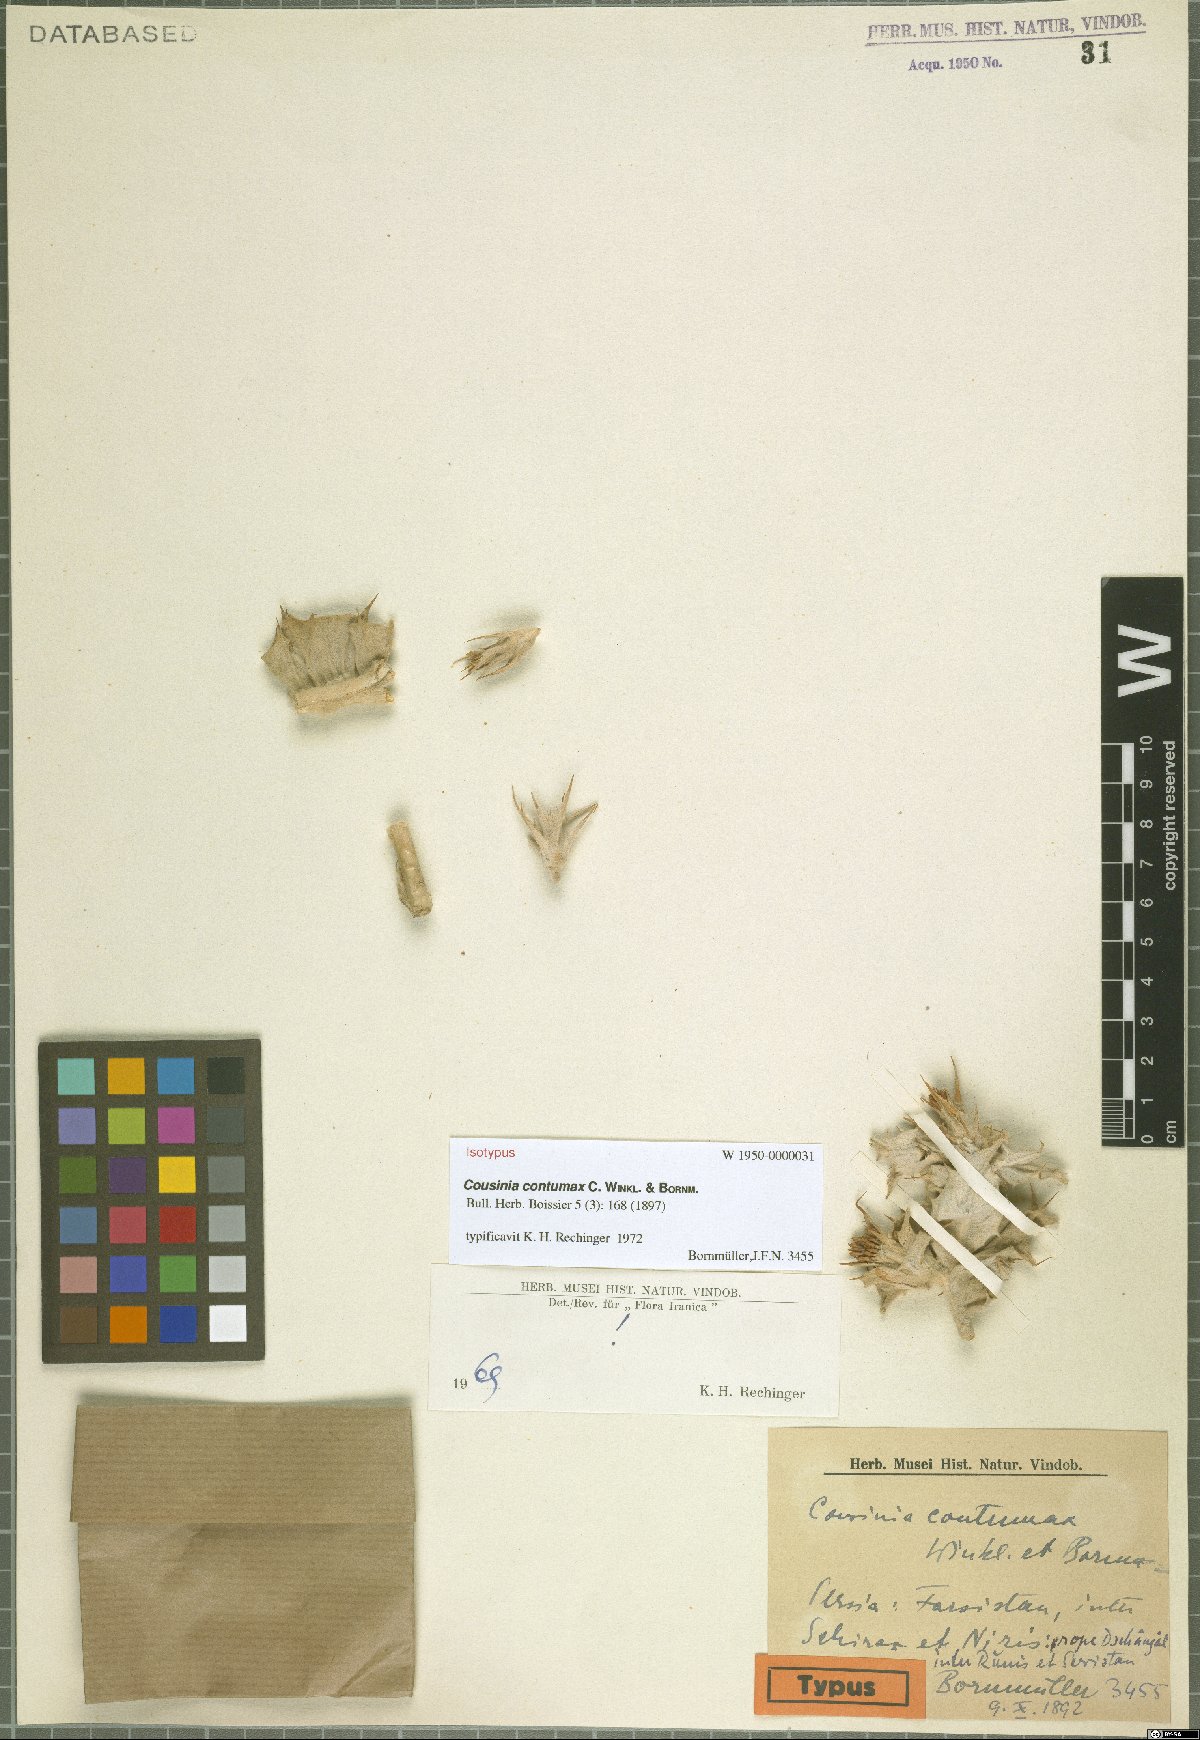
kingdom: Plantae
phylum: Tracheophyta
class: Magnoliopsida
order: Asterales
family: Asteraceae
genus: Cousinia
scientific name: Cousinia contumax
